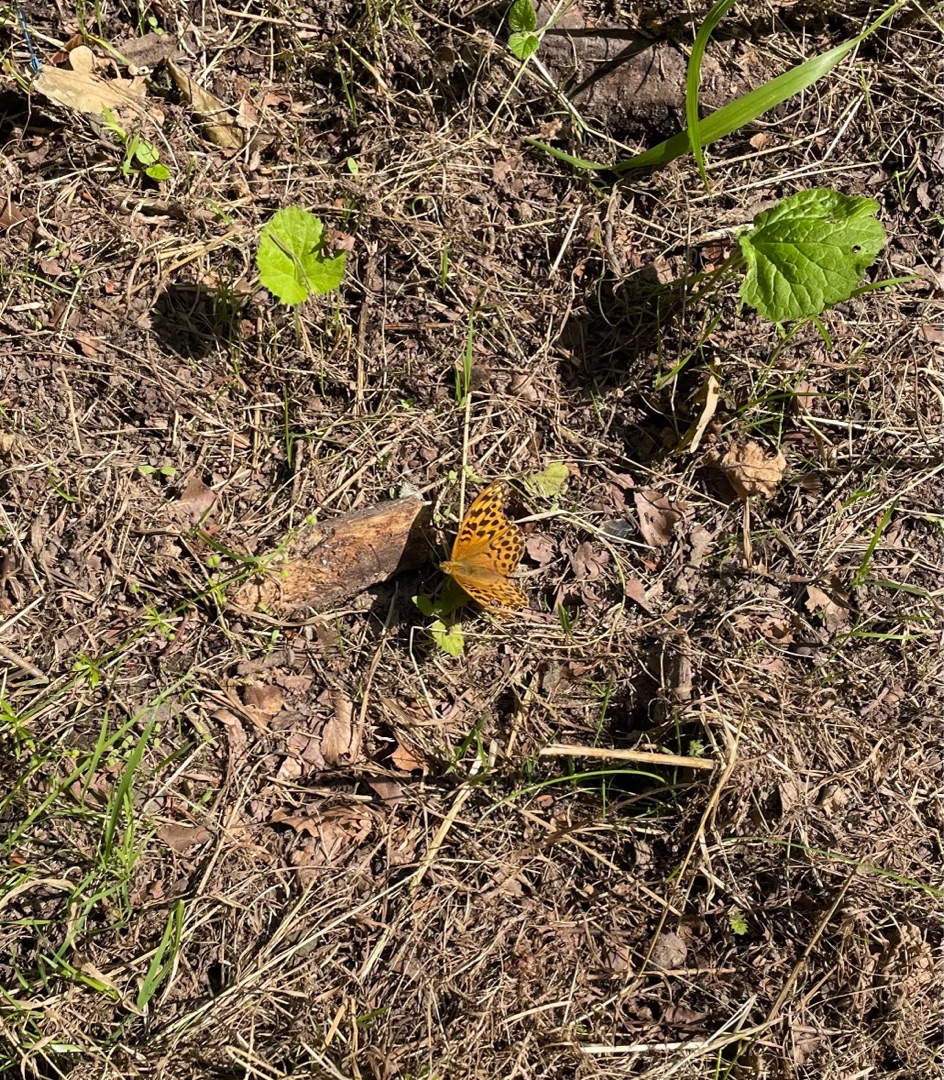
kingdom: Animalia
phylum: Arthropoda
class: Insecta
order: Lepidoptera
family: Nymphalidae
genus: Argynnis
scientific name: Argynnis paphia
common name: Kejserkåbe
